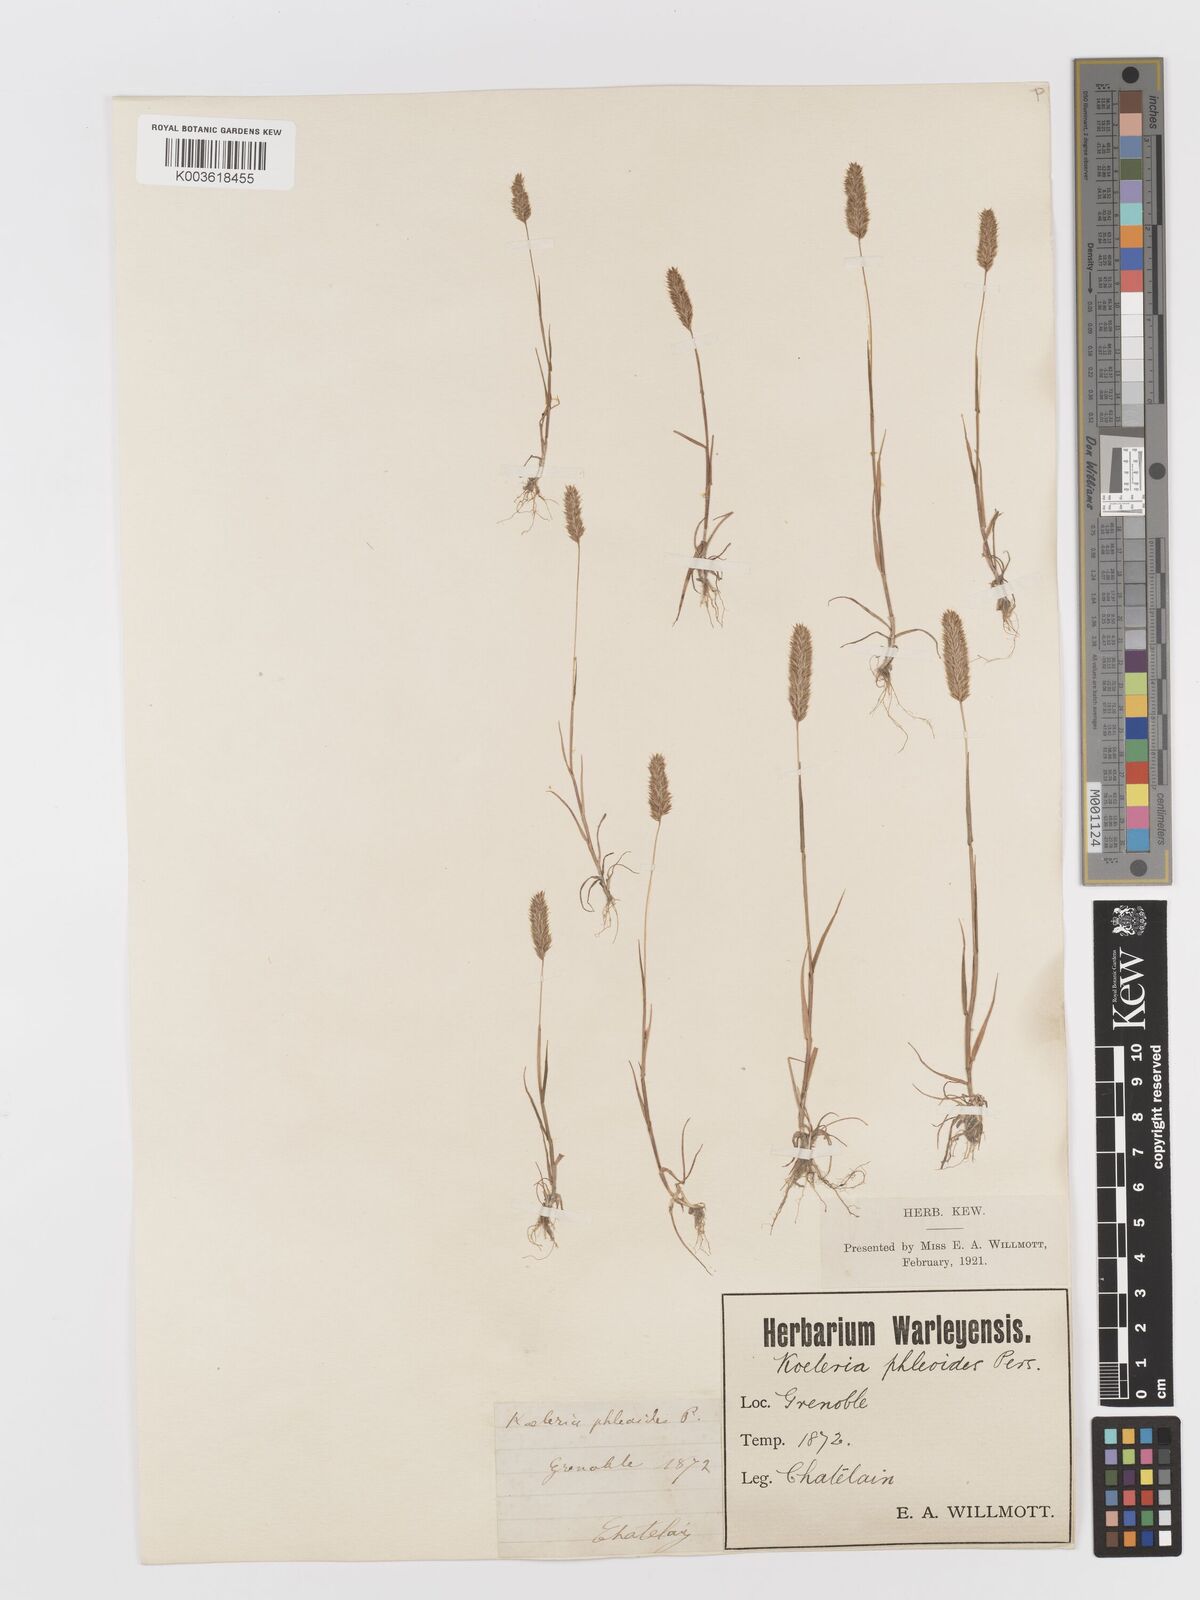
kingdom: Plantae
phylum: Tracheophyta
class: Liliopsida
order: Poales
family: Poaceae
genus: Rostraria
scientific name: Rostraria cristata
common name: Mediterranean hair-grass
